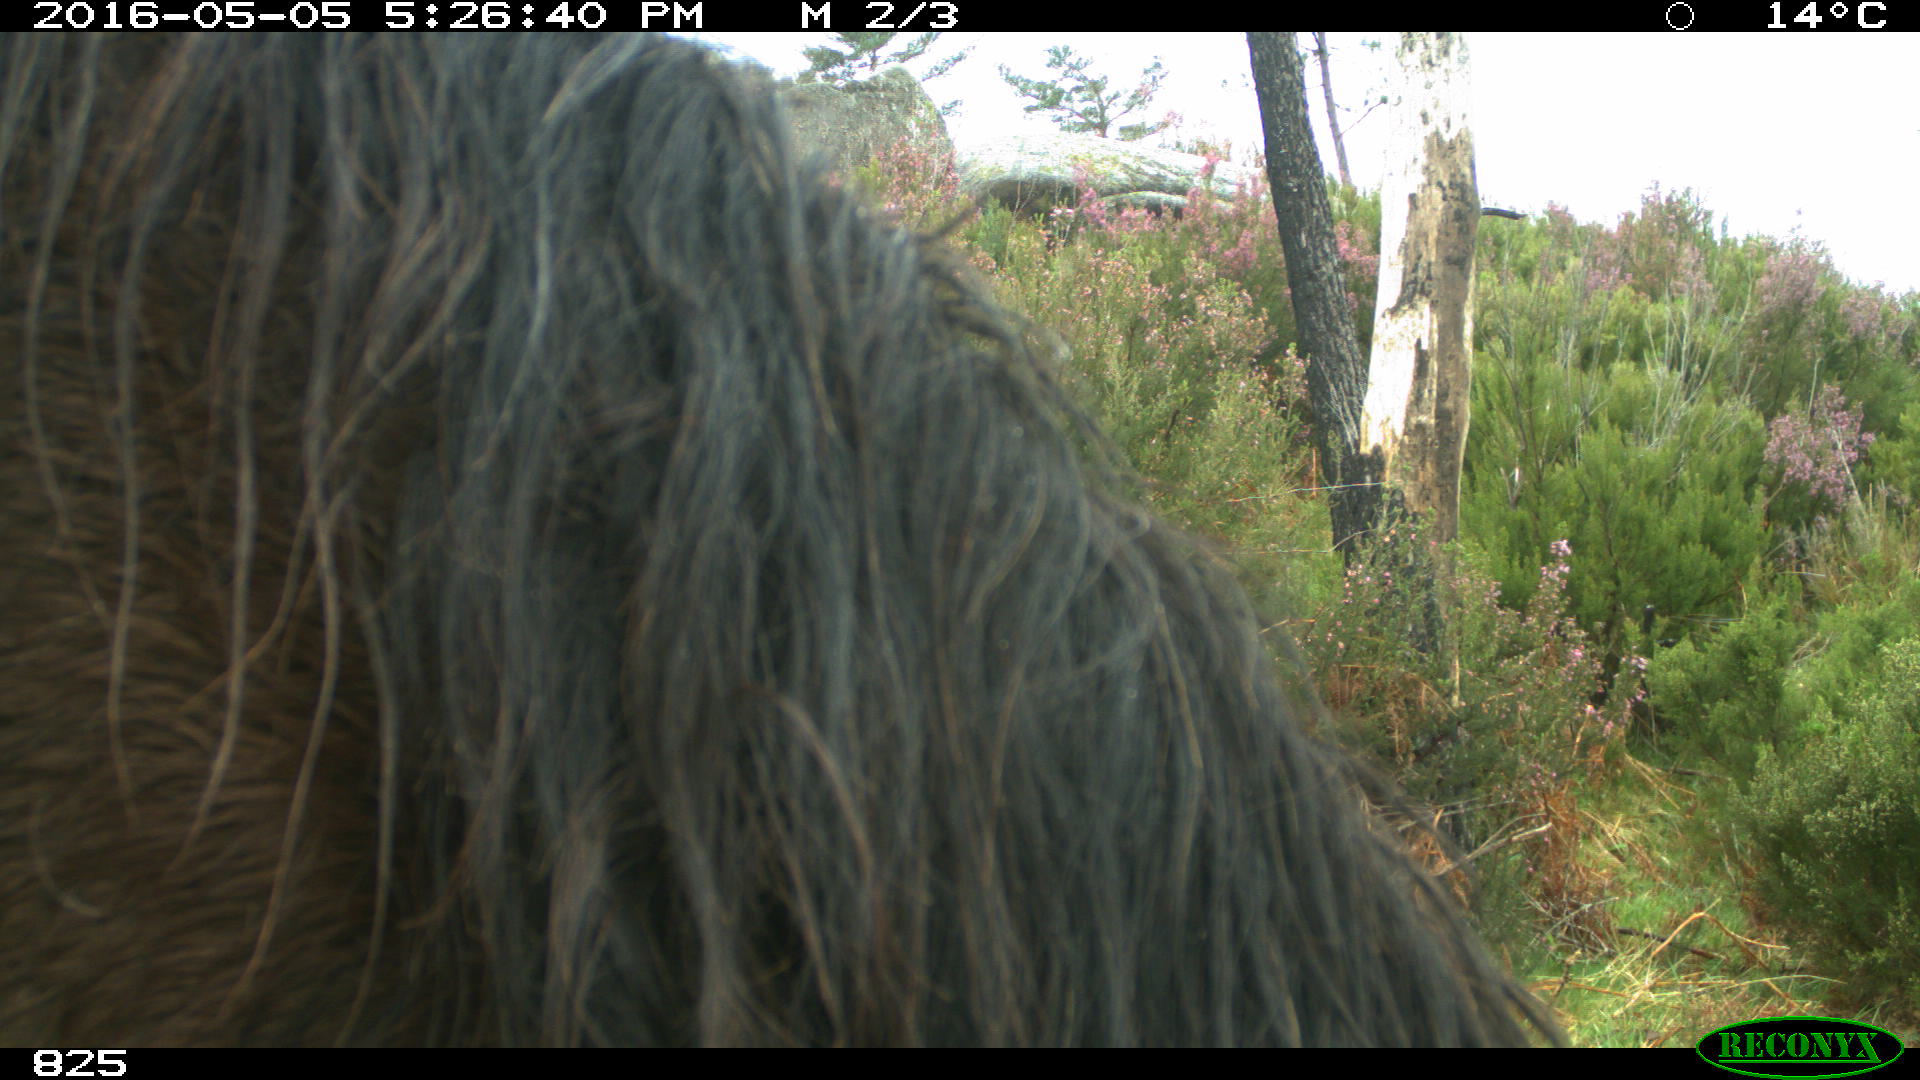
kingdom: Animalia
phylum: Chordata
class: Mammalia
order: Perissodactyla
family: Equidae
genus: Equus
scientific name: Equus caballus
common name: Horse
